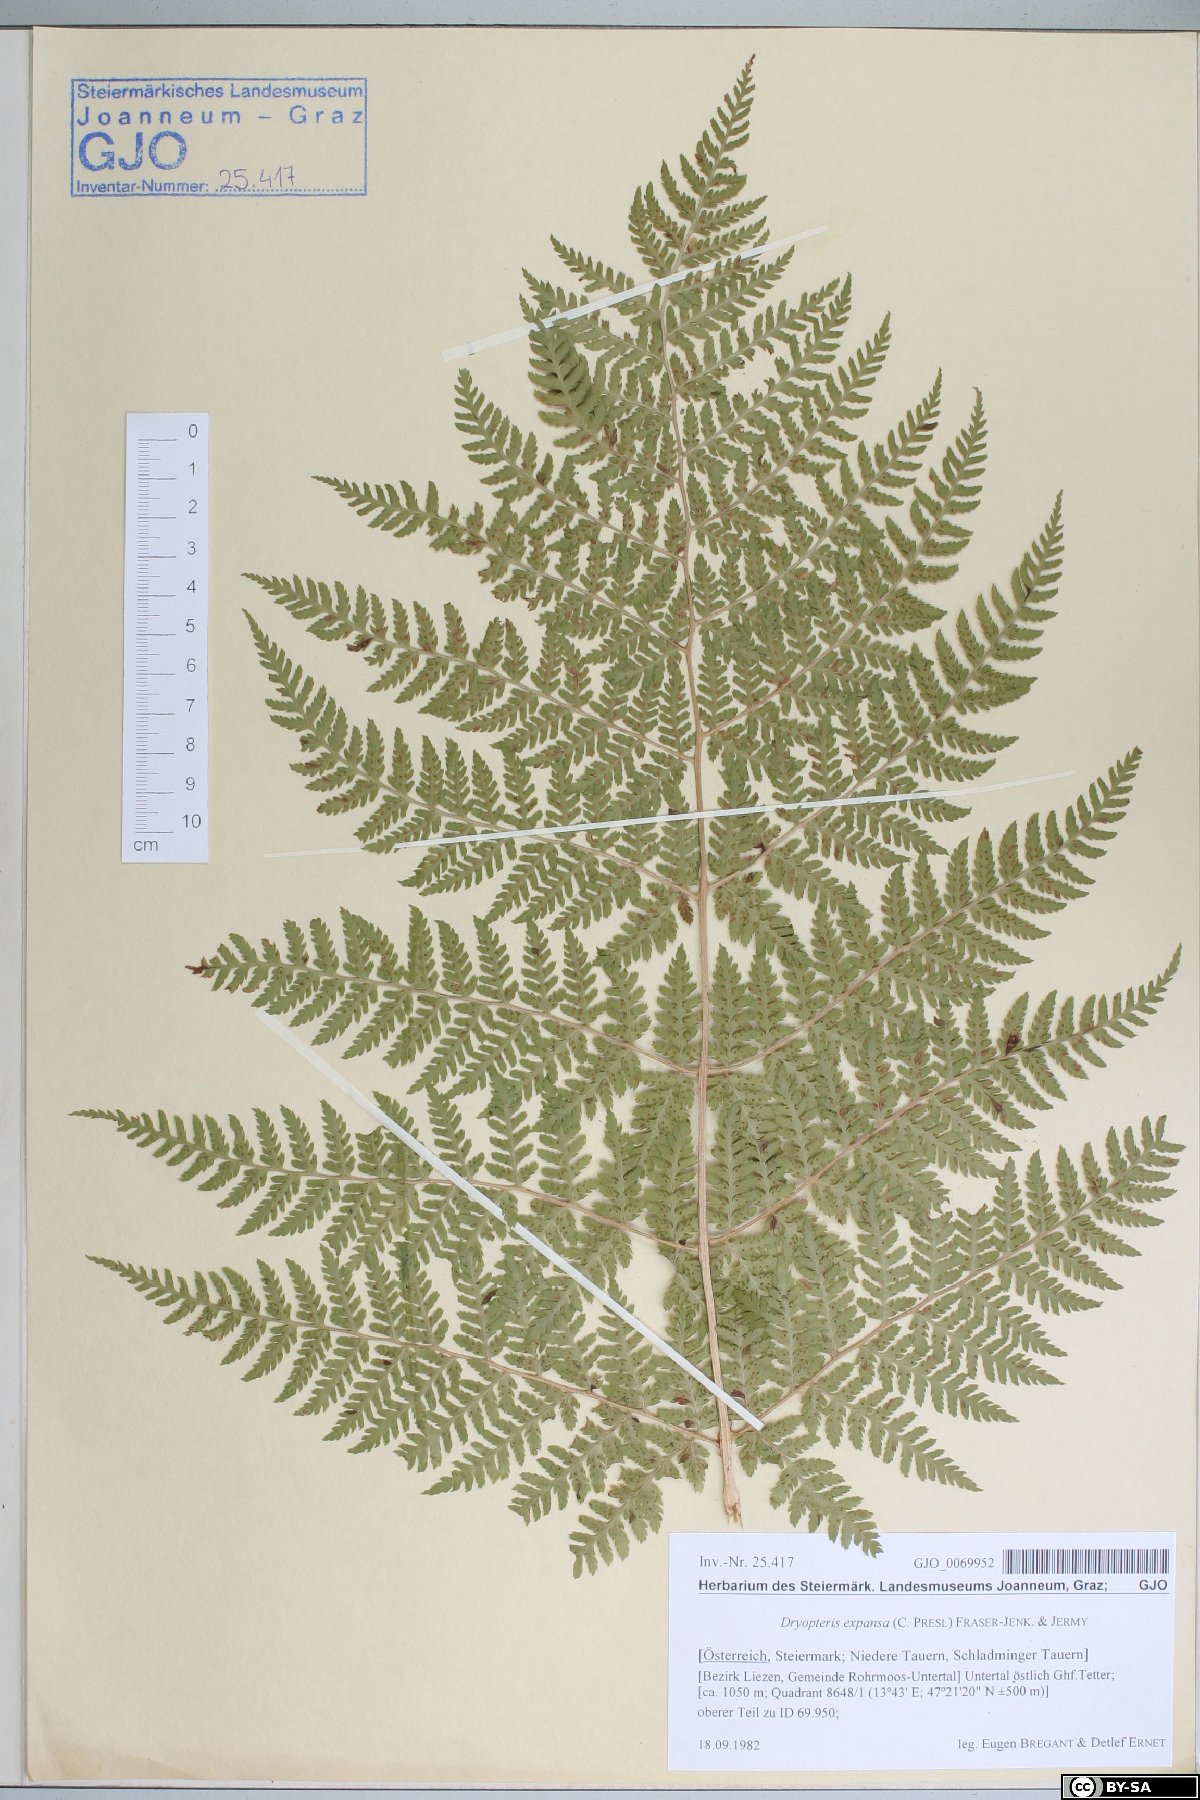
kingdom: Plantae
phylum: Tracheophyta
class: Polypodiopsida
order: Polypodiales
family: Dryopteridaceae
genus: Dryopteris
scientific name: Dryopteris expansa
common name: Northern buckler fern
